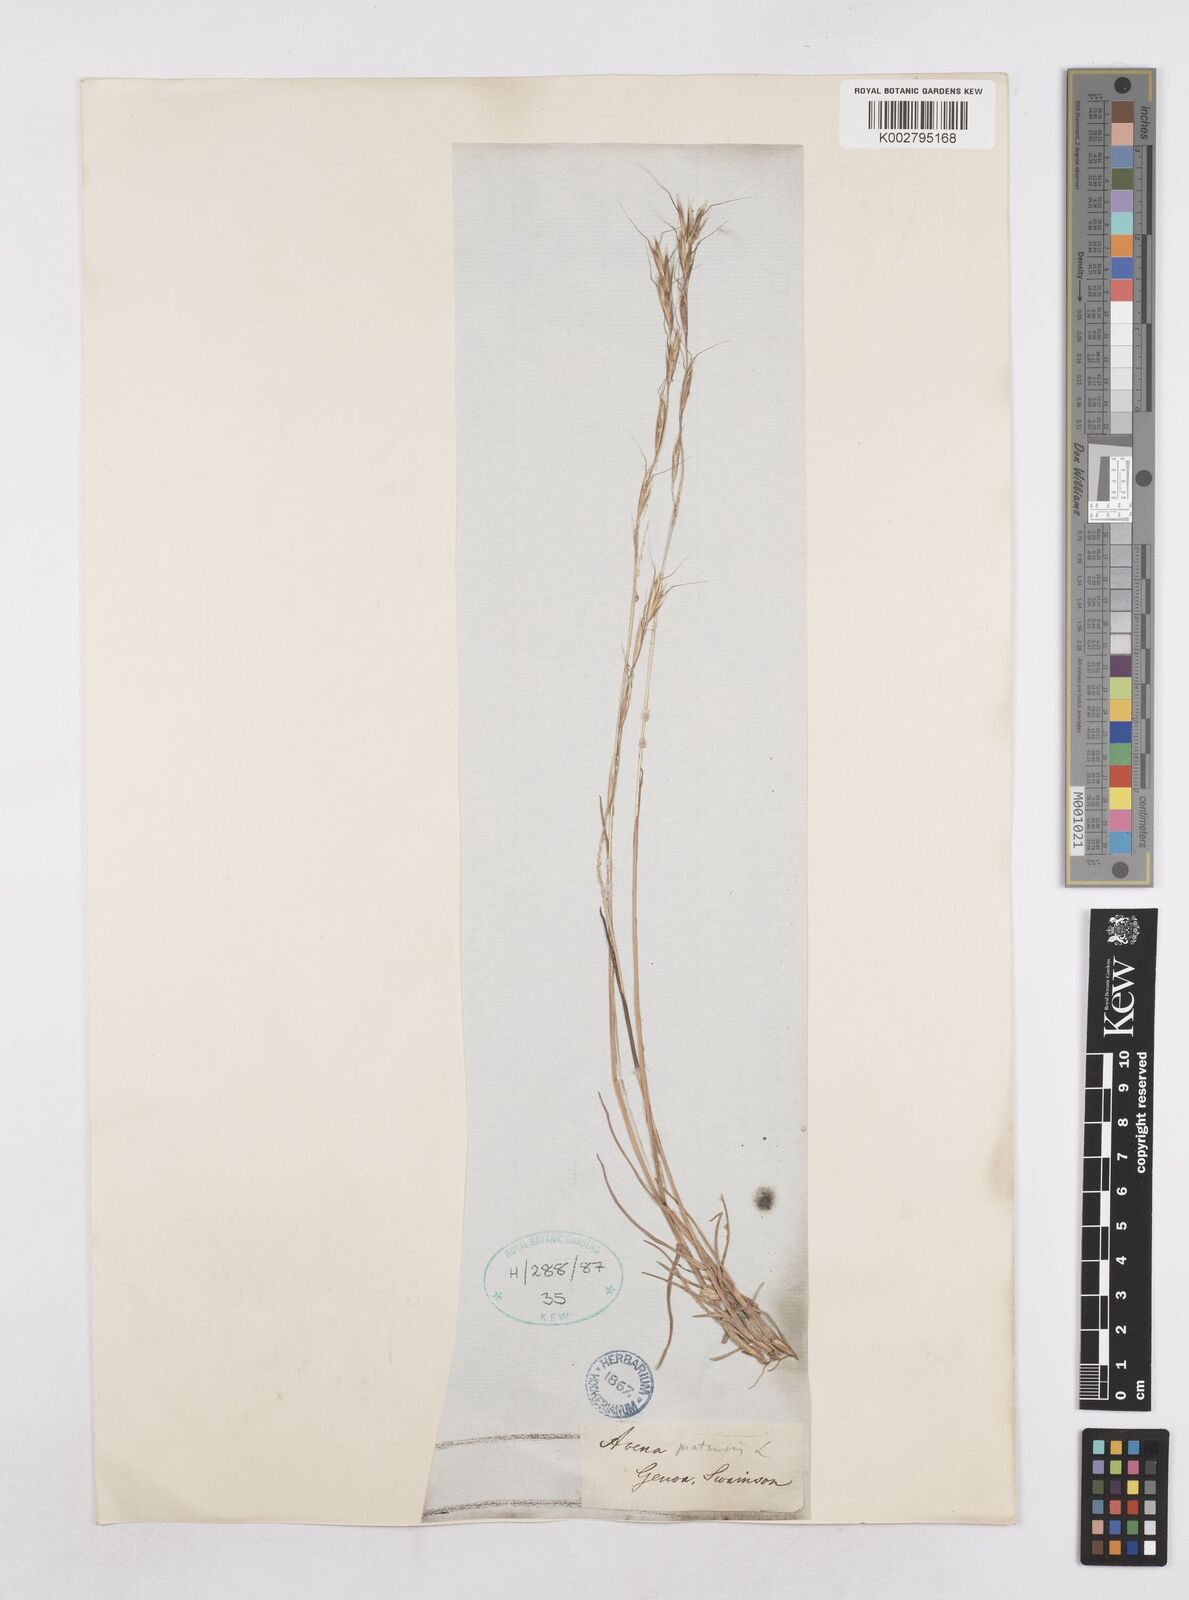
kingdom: Plantae
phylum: Tracheophyta
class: Liliopsida
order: Poales
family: Poaceae
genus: Helictochloa
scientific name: Helictochloa pratensis
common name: Meadow oat grass
